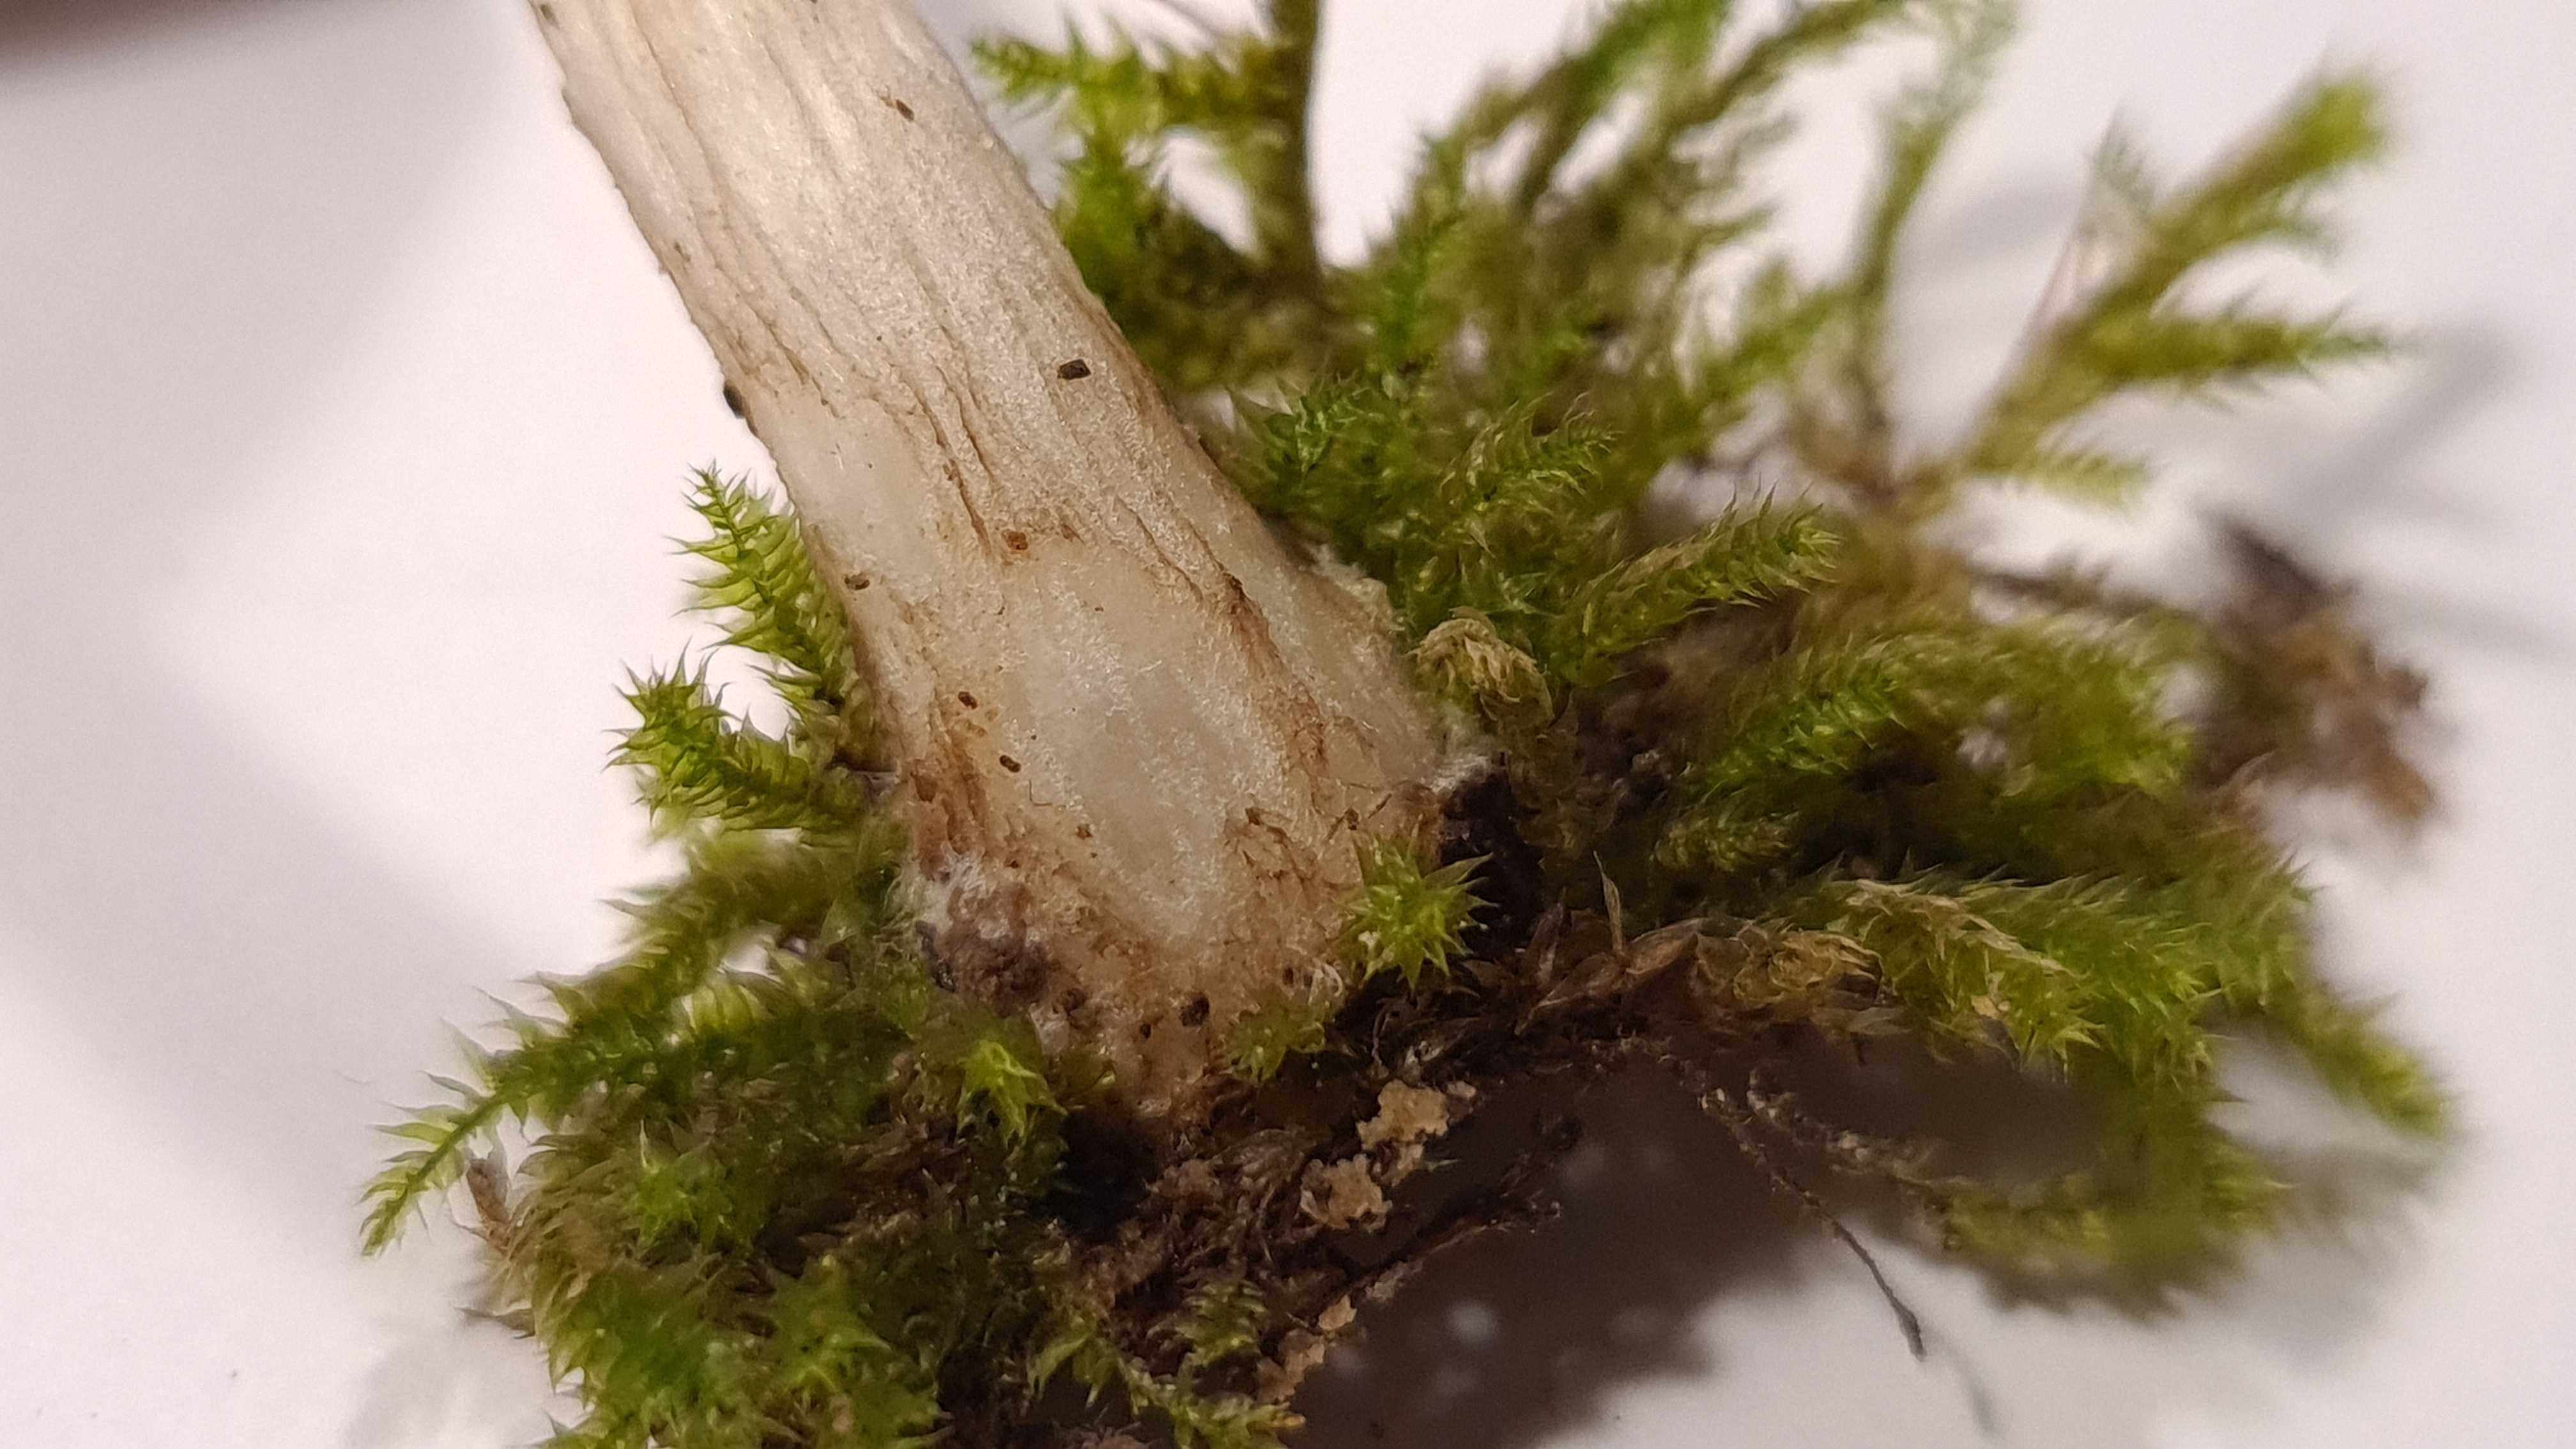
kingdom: Fungi
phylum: Basidiomycota
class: Agaricomycetes
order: Agaricales
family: Pluteaceae
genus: Pluteus
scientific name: Pluteus
